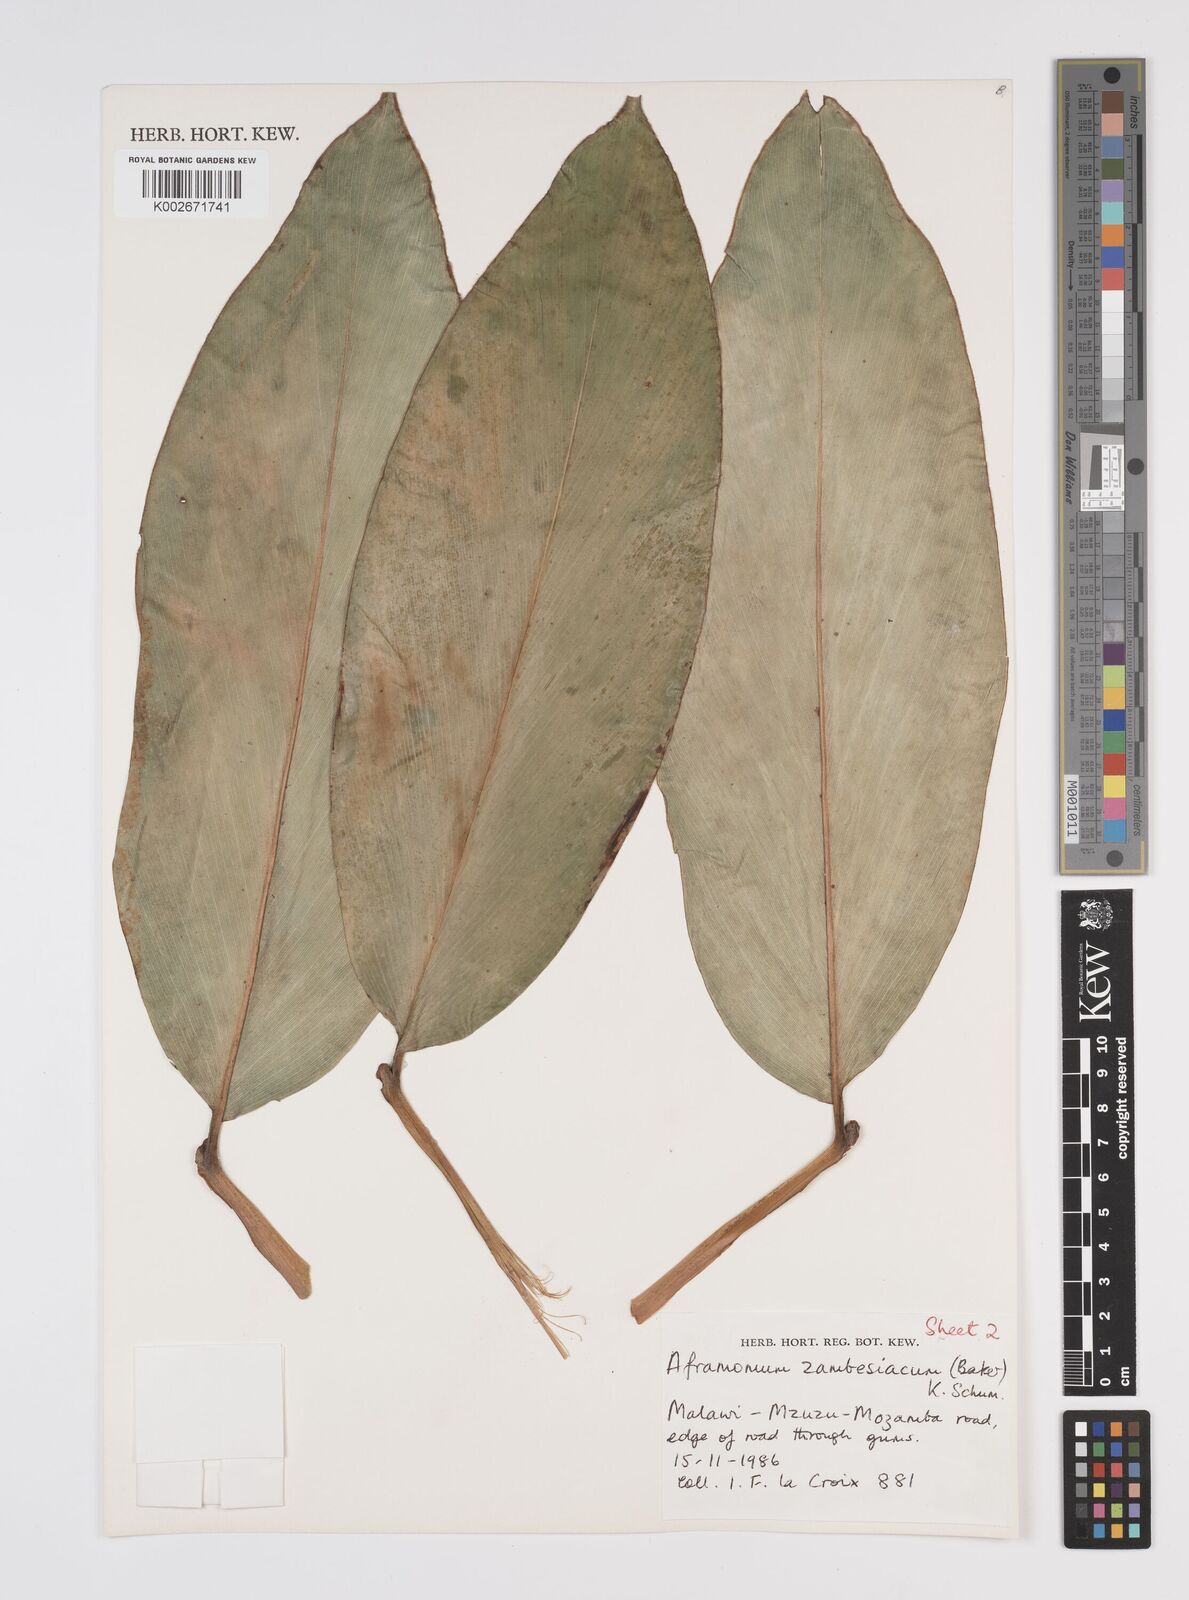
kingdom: Plantae
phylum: Tracheophyta
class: Liliopsida
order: Zingiberales
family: Zingiberaceae
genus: Aframomum
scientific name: Aframomum zambesiacum
